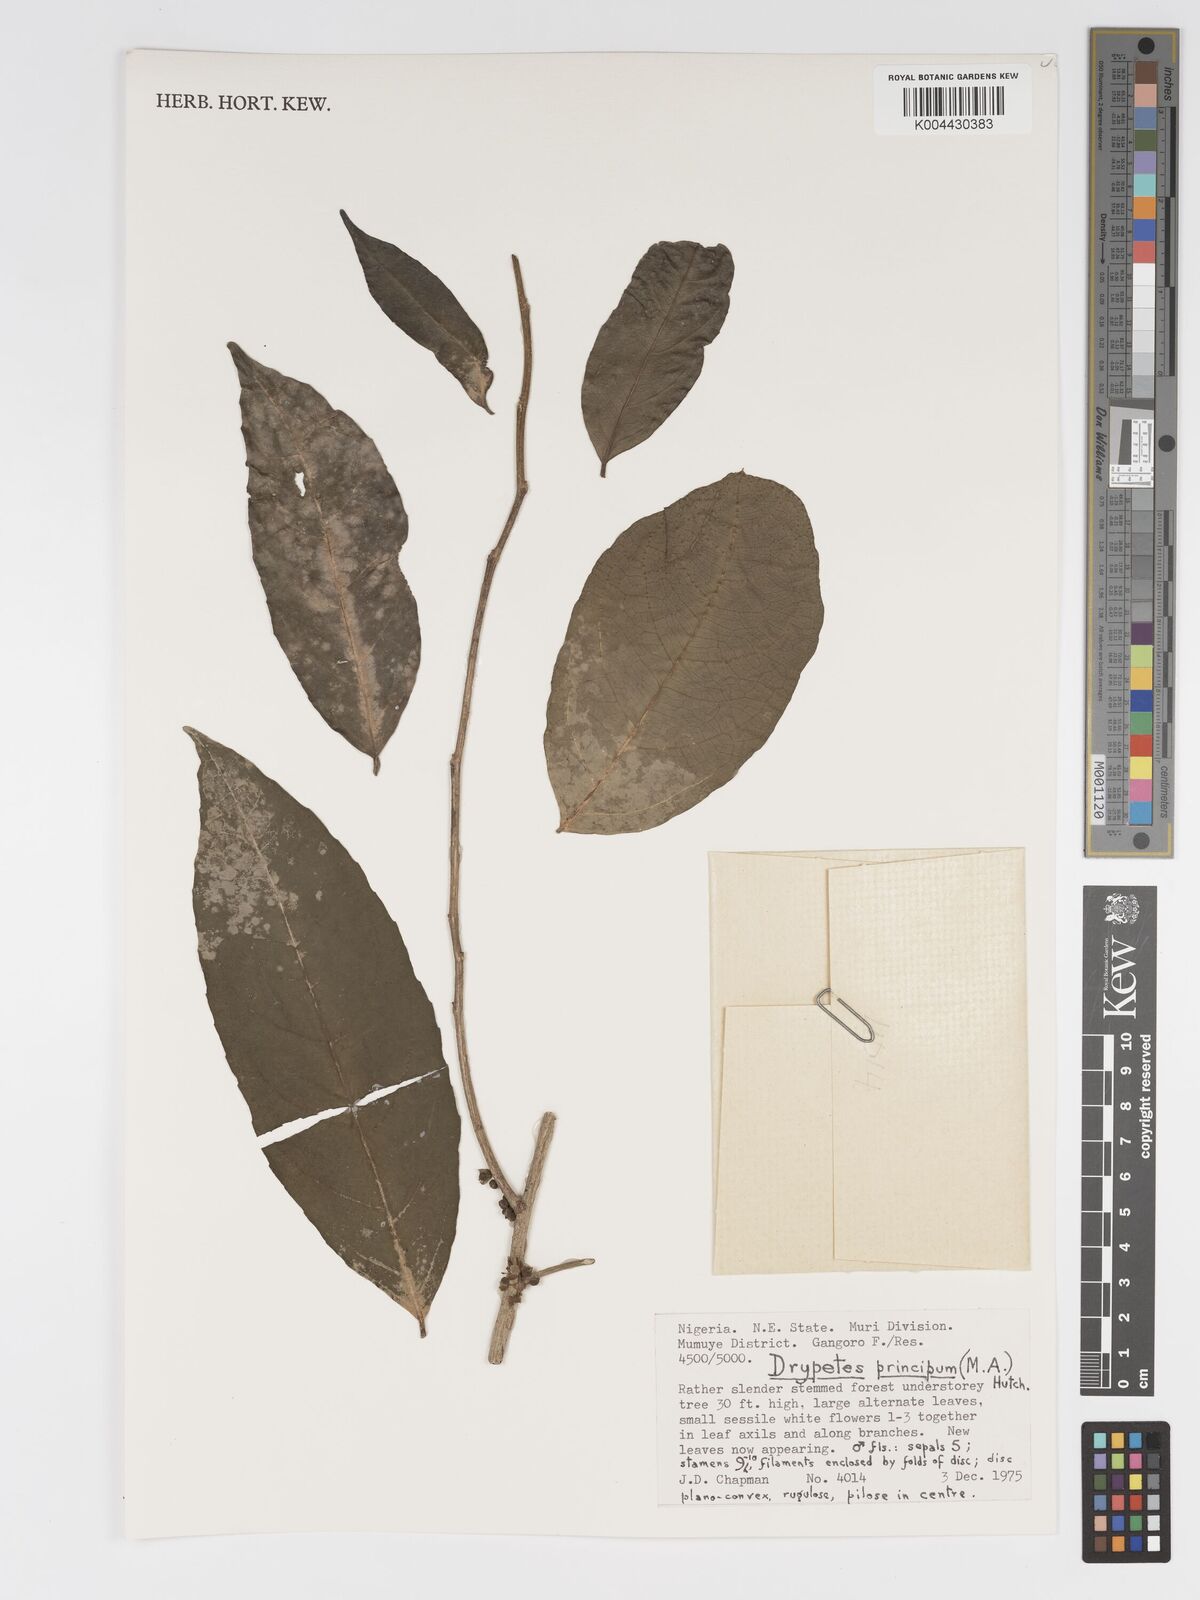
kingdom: Plantae
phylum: Tracheophyta
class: Magnoliopsida
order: Malpighiales
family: Putranjivaceae
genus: Drypetes
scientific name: Drypetes principum
